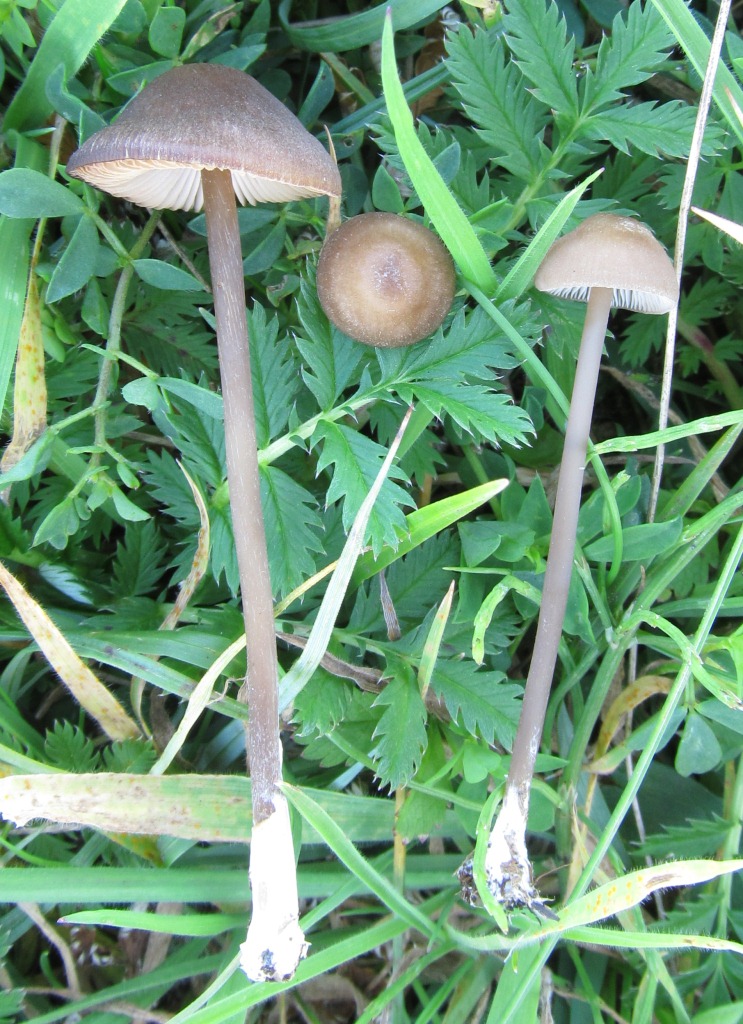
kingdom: Fungi
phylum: Basidiomycota
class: Agaricomycetes
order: Agaricales
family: Entolomataceae
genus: Entoloma
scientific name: Entoloma infula
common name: hvidbladet rødblad
